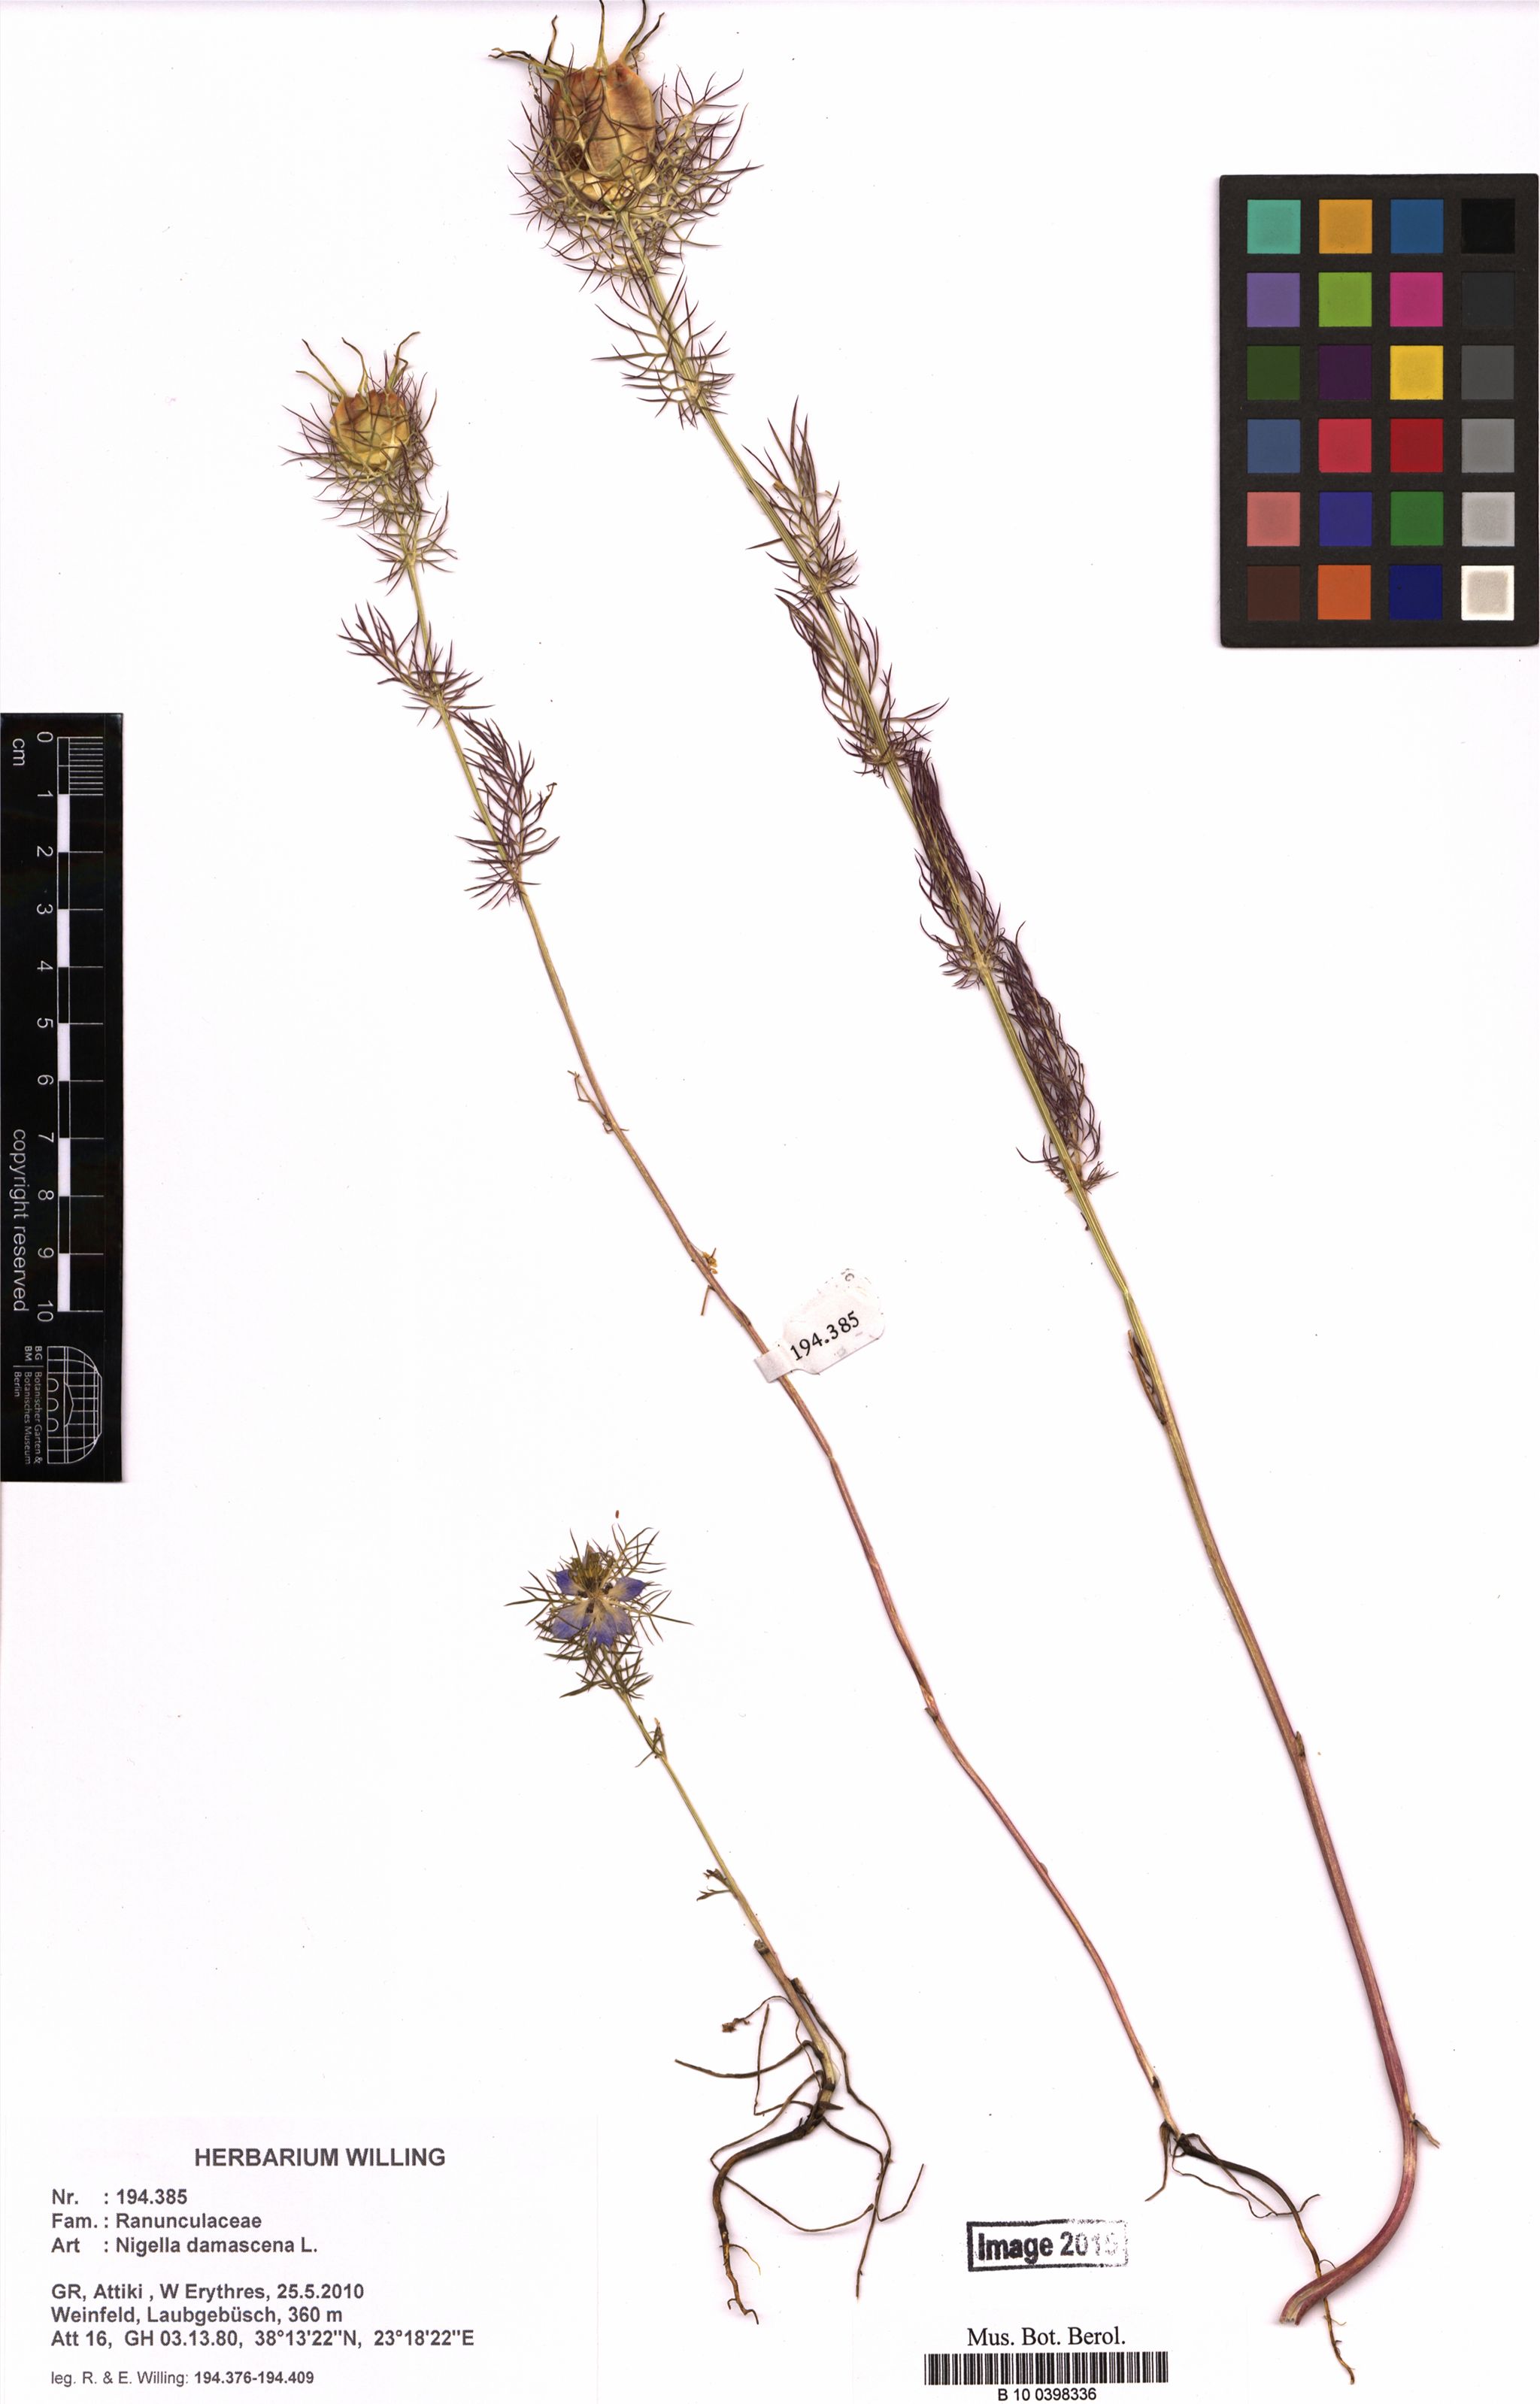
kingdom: Plantae
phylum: Tracheophyta
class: Magnoliopsida
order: Ranunculales
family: Ranunculaceae
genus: Nigella
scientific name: Nigella damascena
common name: Love-in-a-mist
